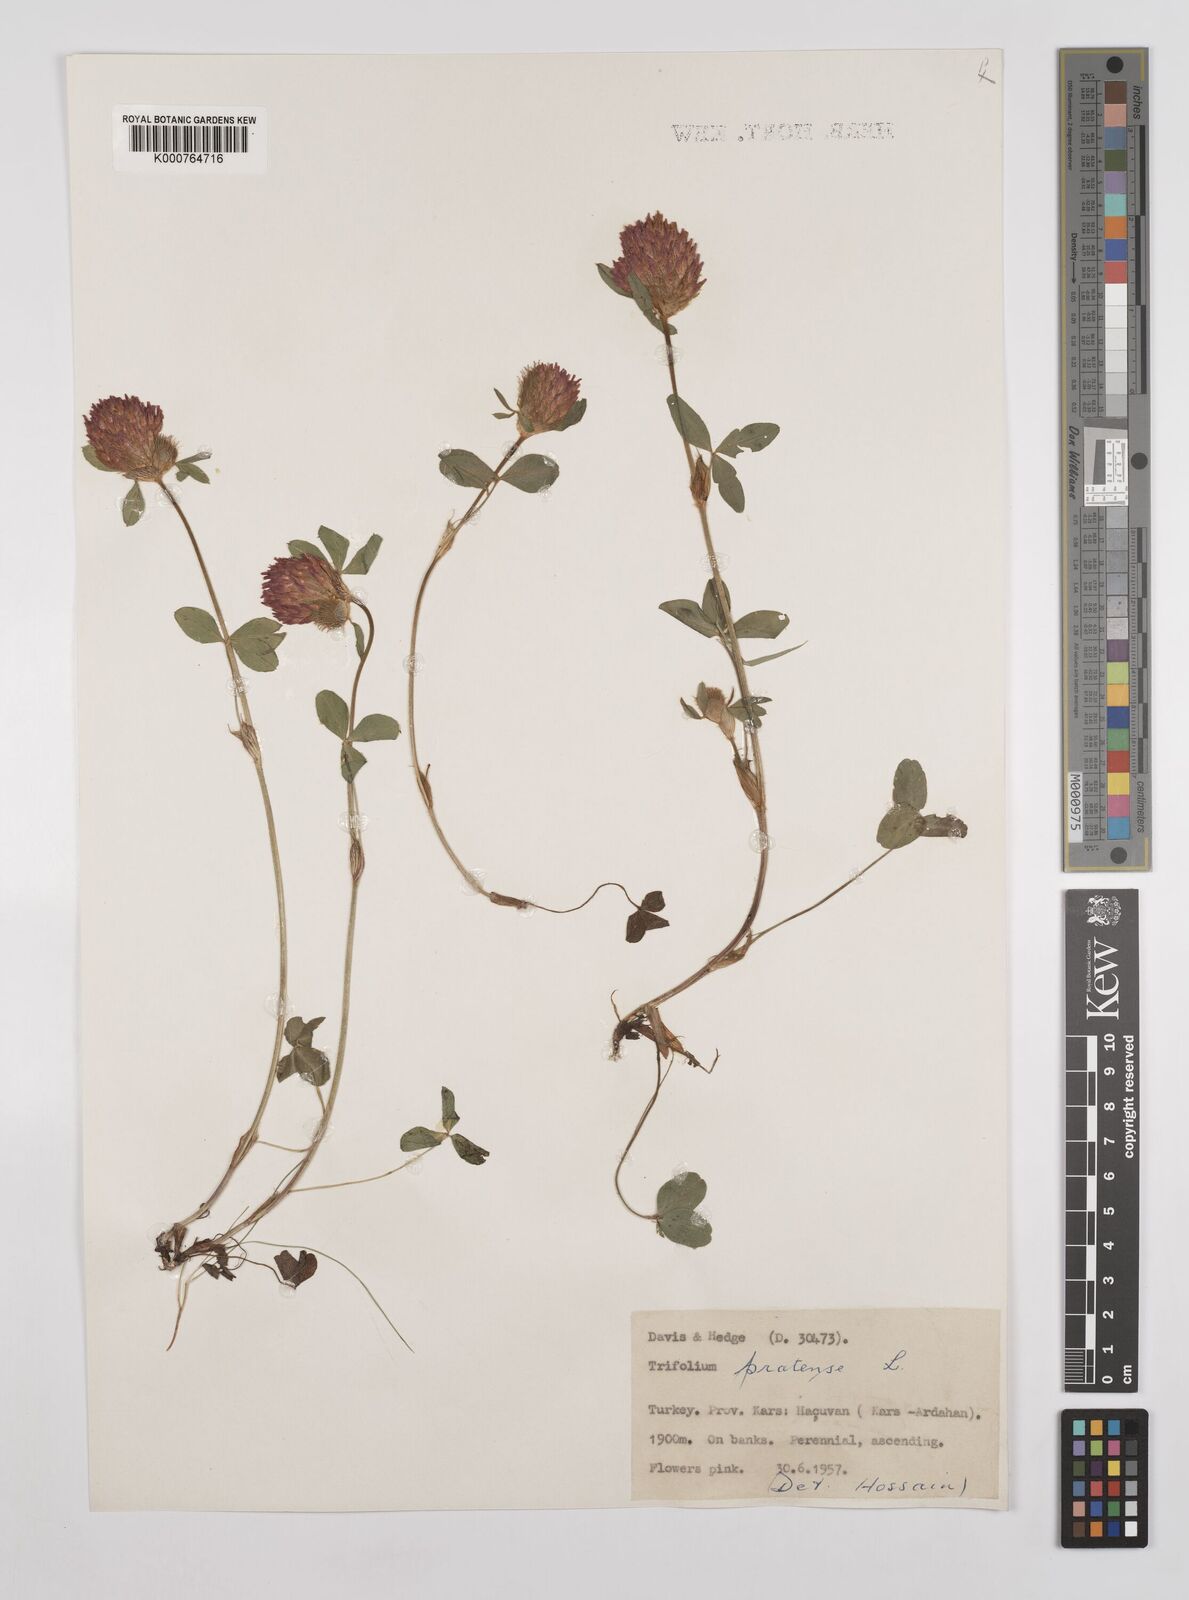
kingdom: Plantae
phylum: Tracheophyta
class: Magnoliopsida
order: Fabales
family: Fabaceae
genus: Trifolium
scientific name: Trifolium pratense
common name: Red clover
